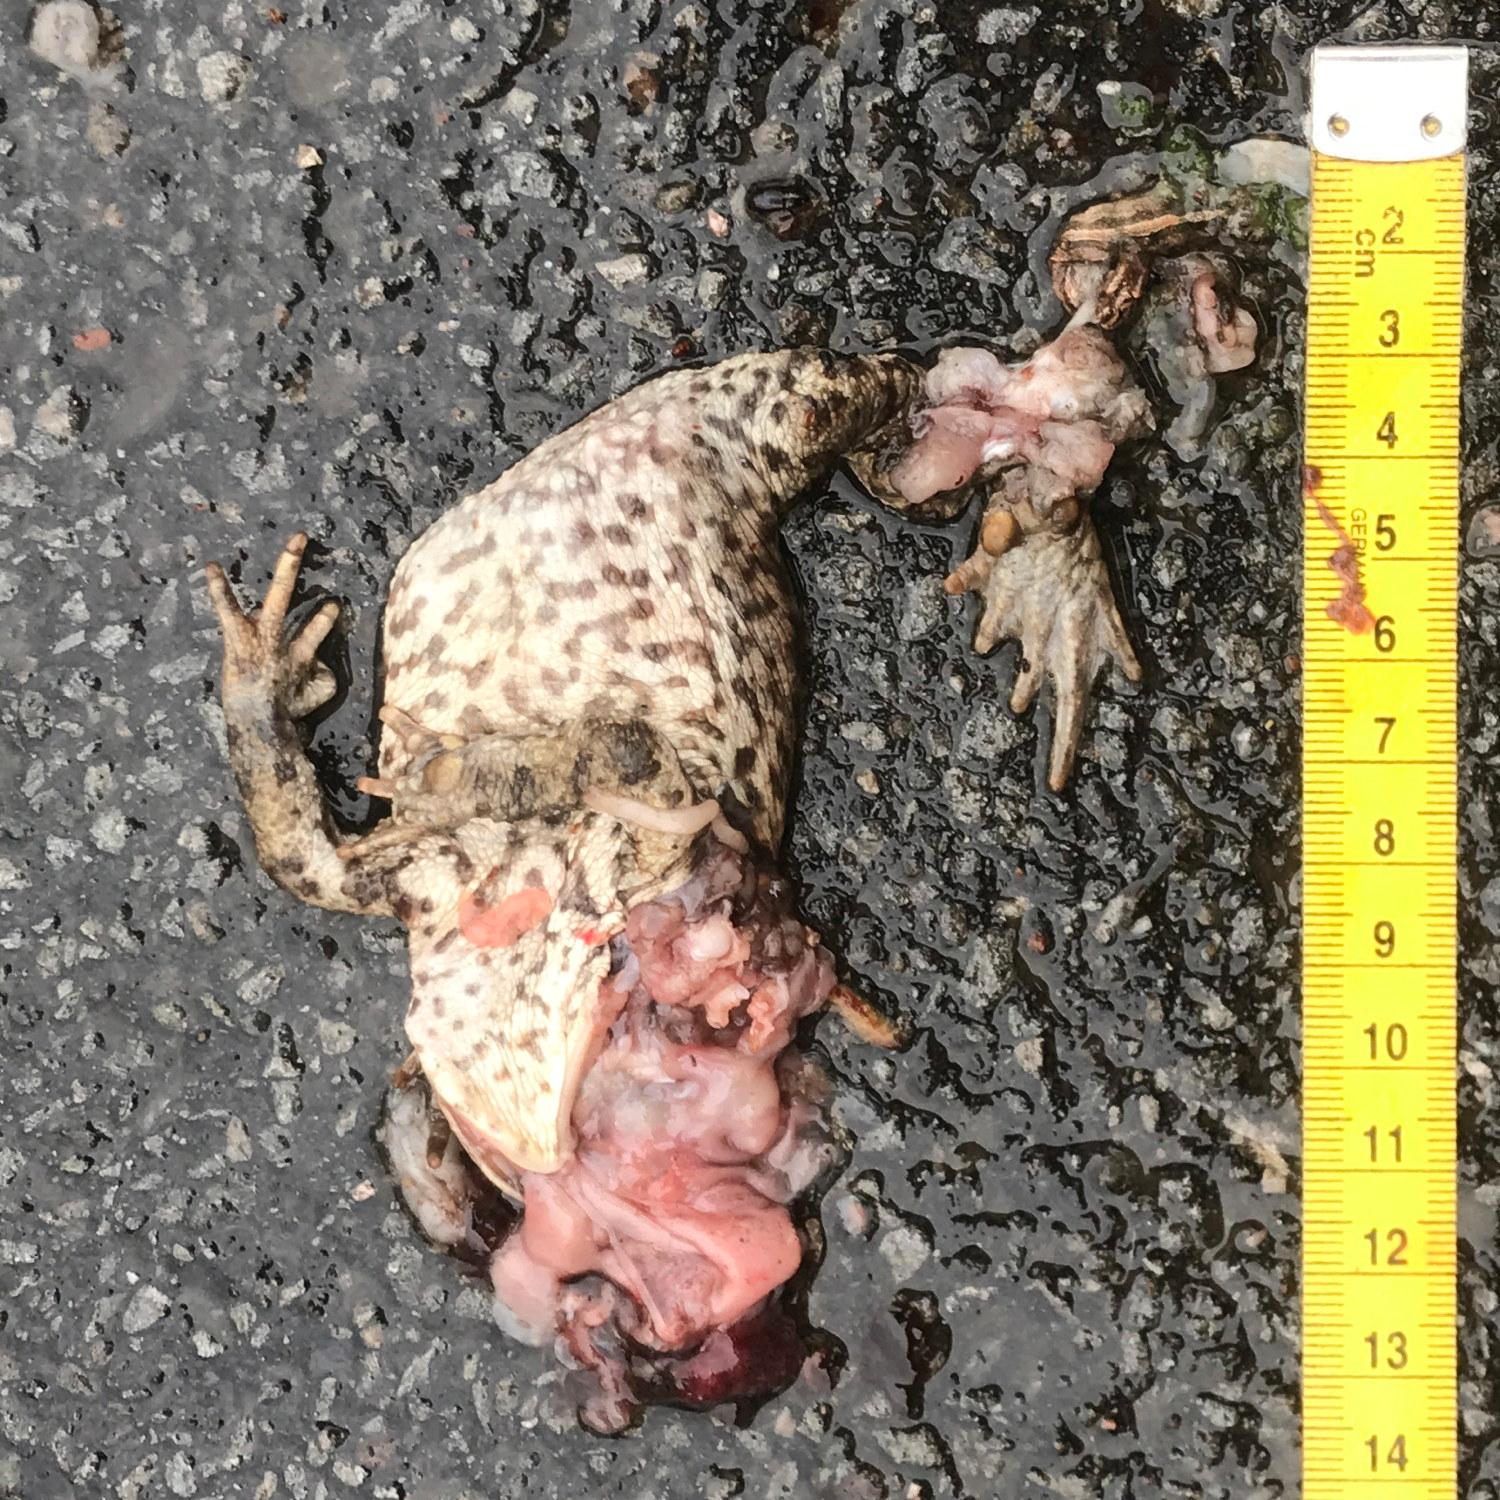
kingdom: Animalia
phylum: Chordata
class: Amphibia
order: Anura
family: Bufonidae
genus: Bufo
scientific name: Bufo bufo
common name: Common toad
